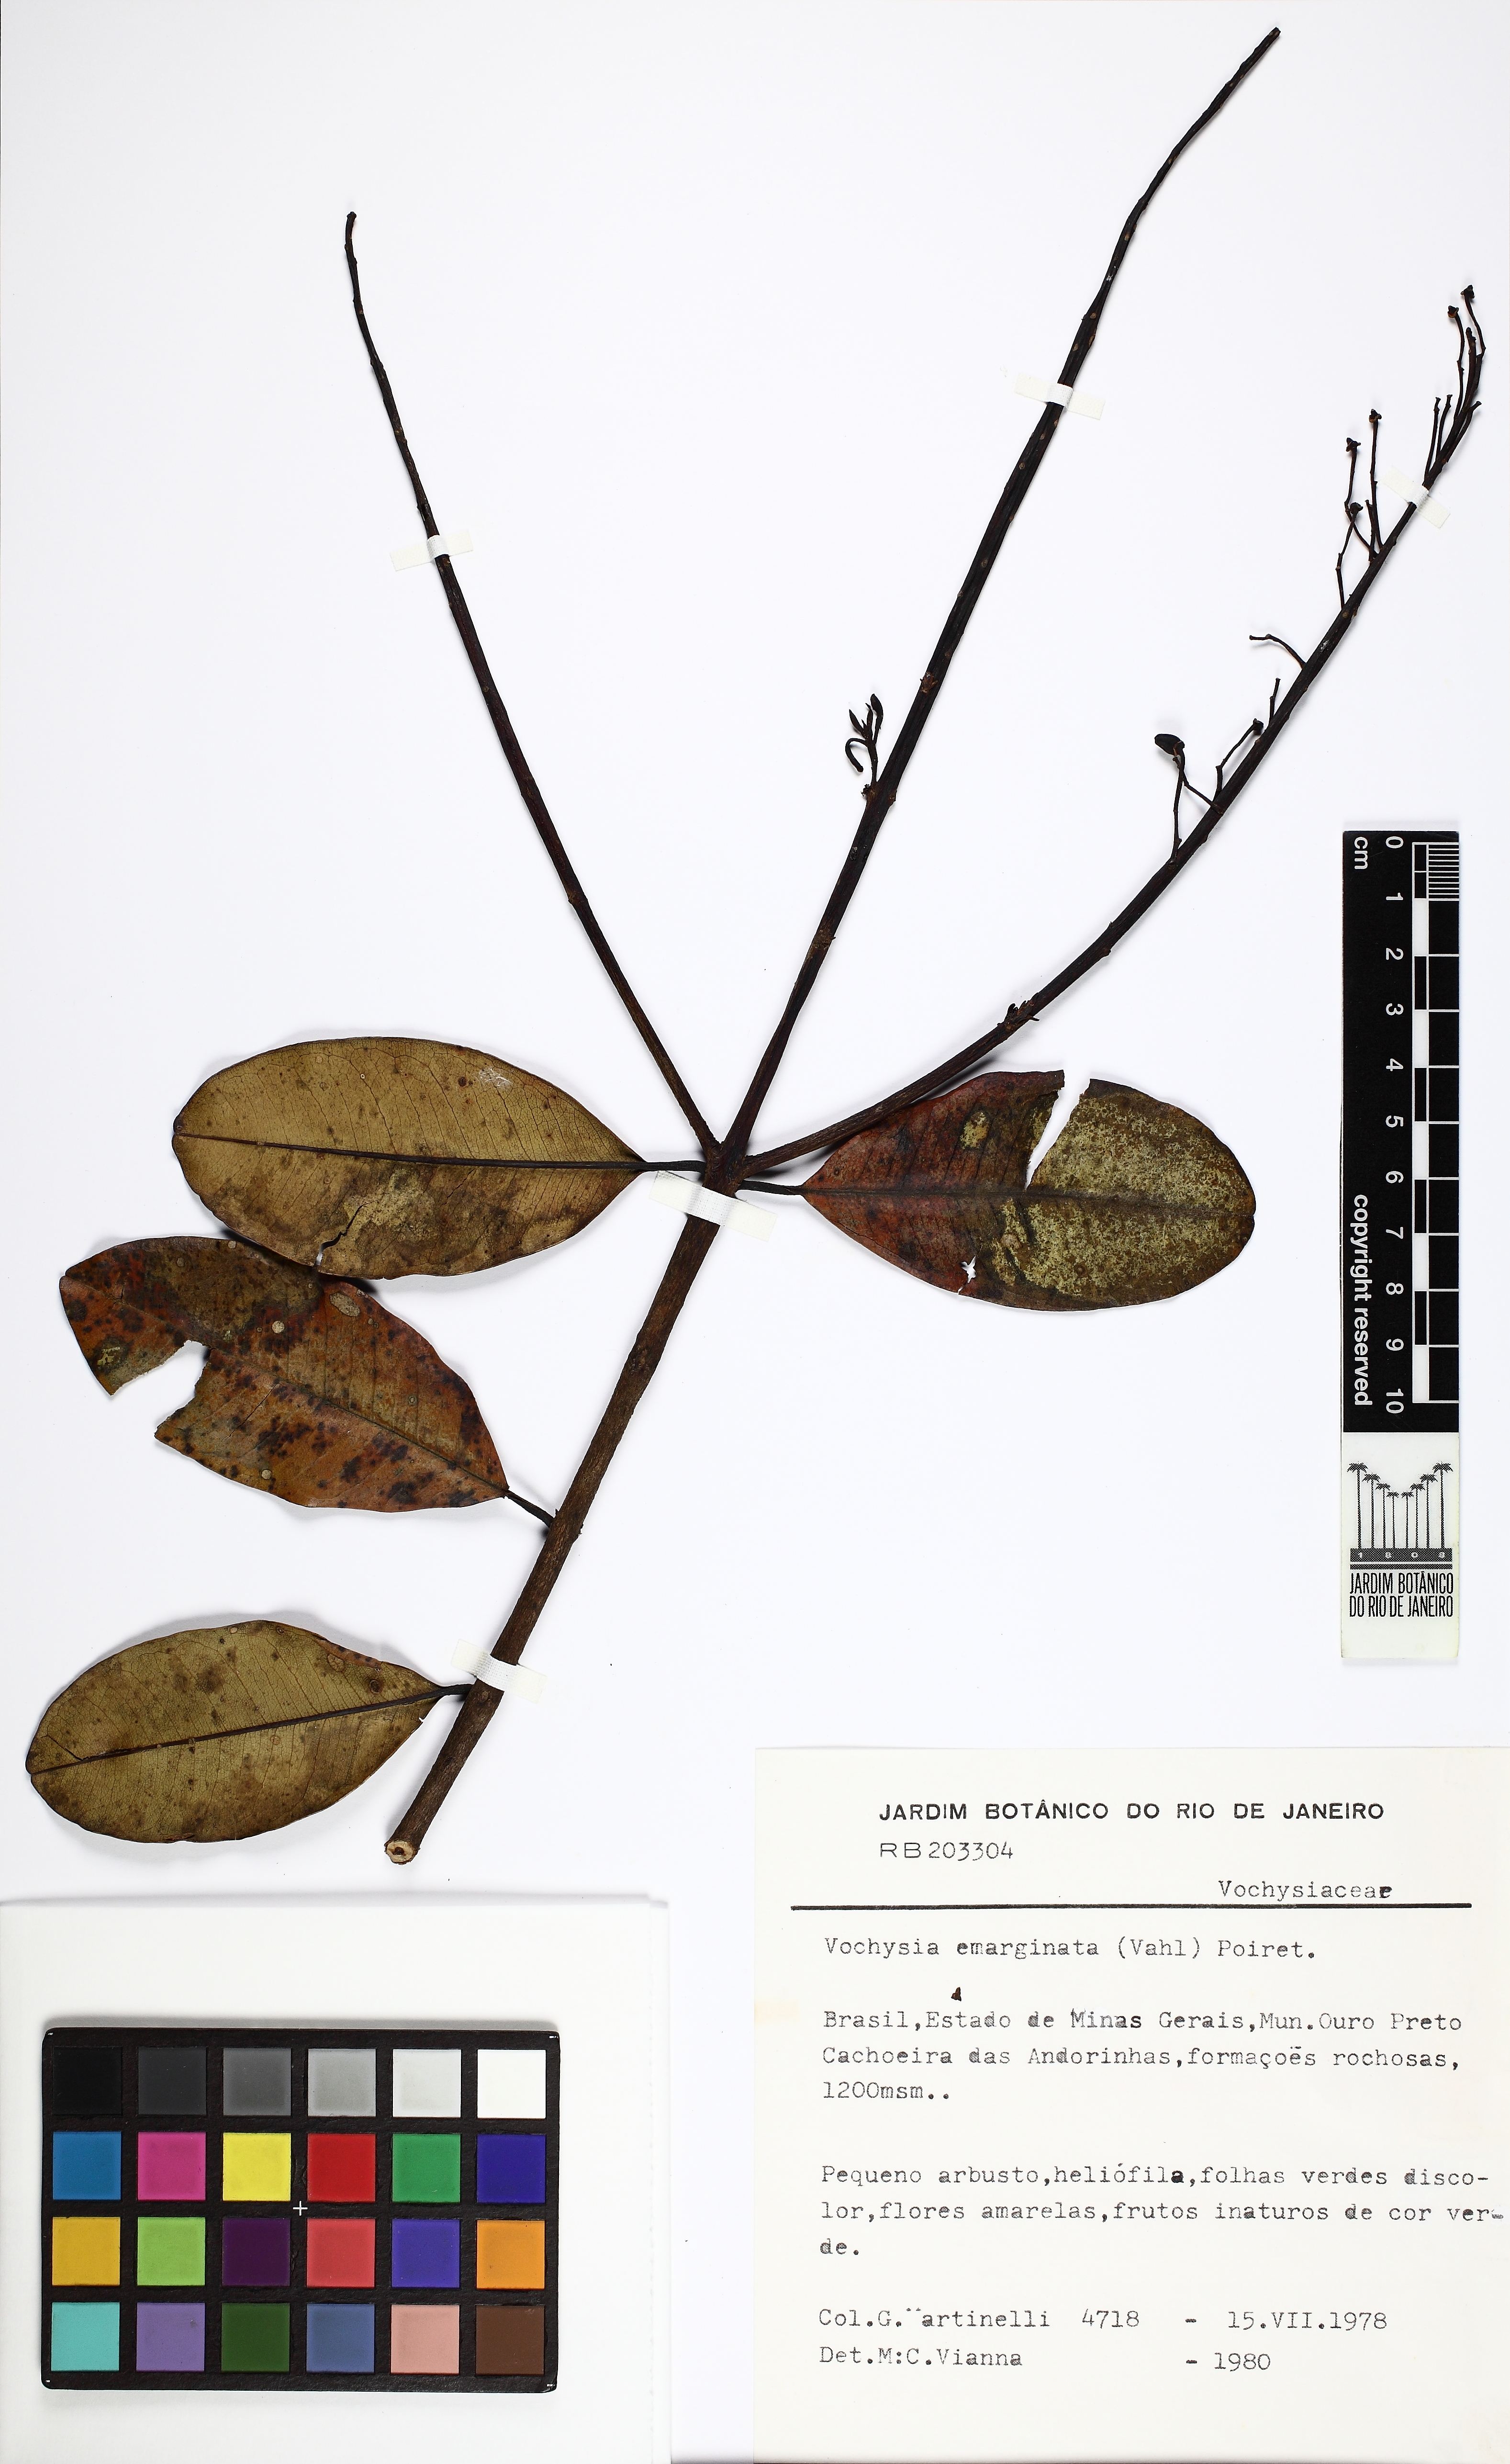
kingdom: Plantae
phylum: Tracheophyta
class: Magnoliopsida
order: Myrtales
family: Vochysiaceae
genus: Vochysia
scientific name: Vochysia emarginata
